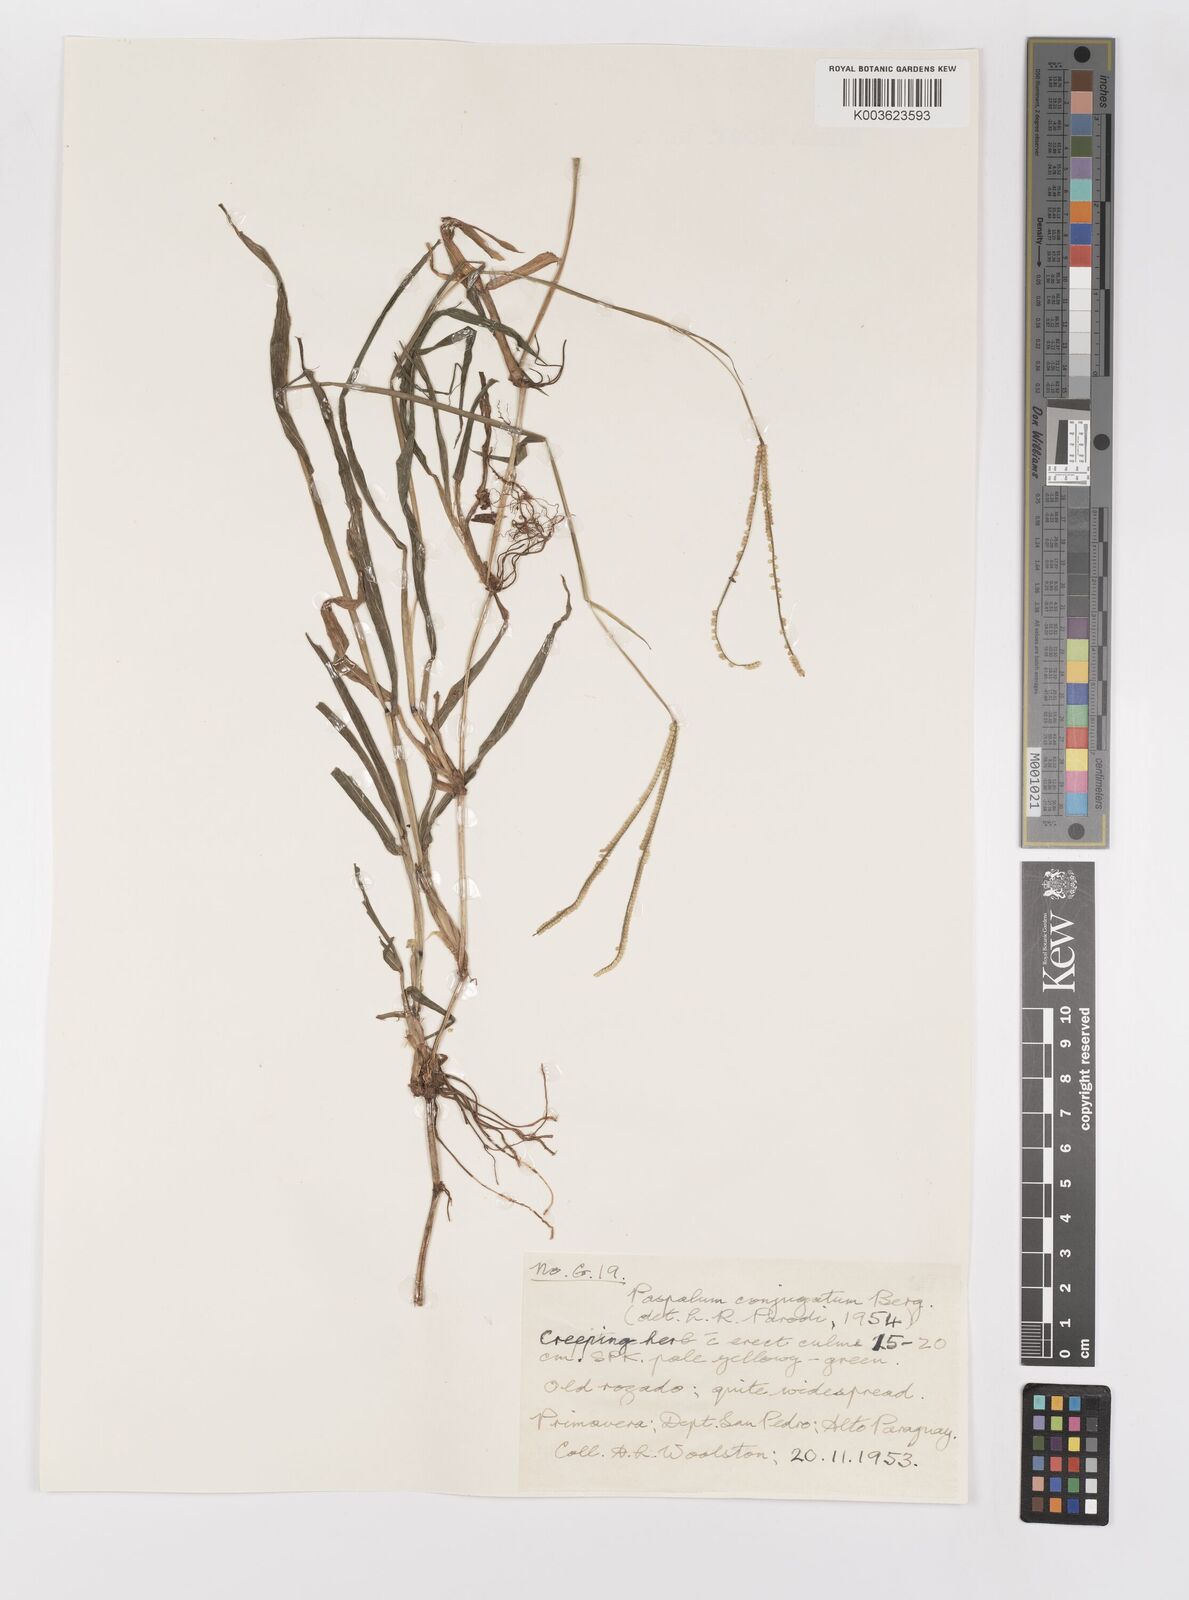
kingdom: Plantae
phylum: Tracheophyta
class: Liliopsida
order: Poales
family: Poaceae
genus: Paspalum
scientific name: Paspalum conjugatum
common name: Hilograss
